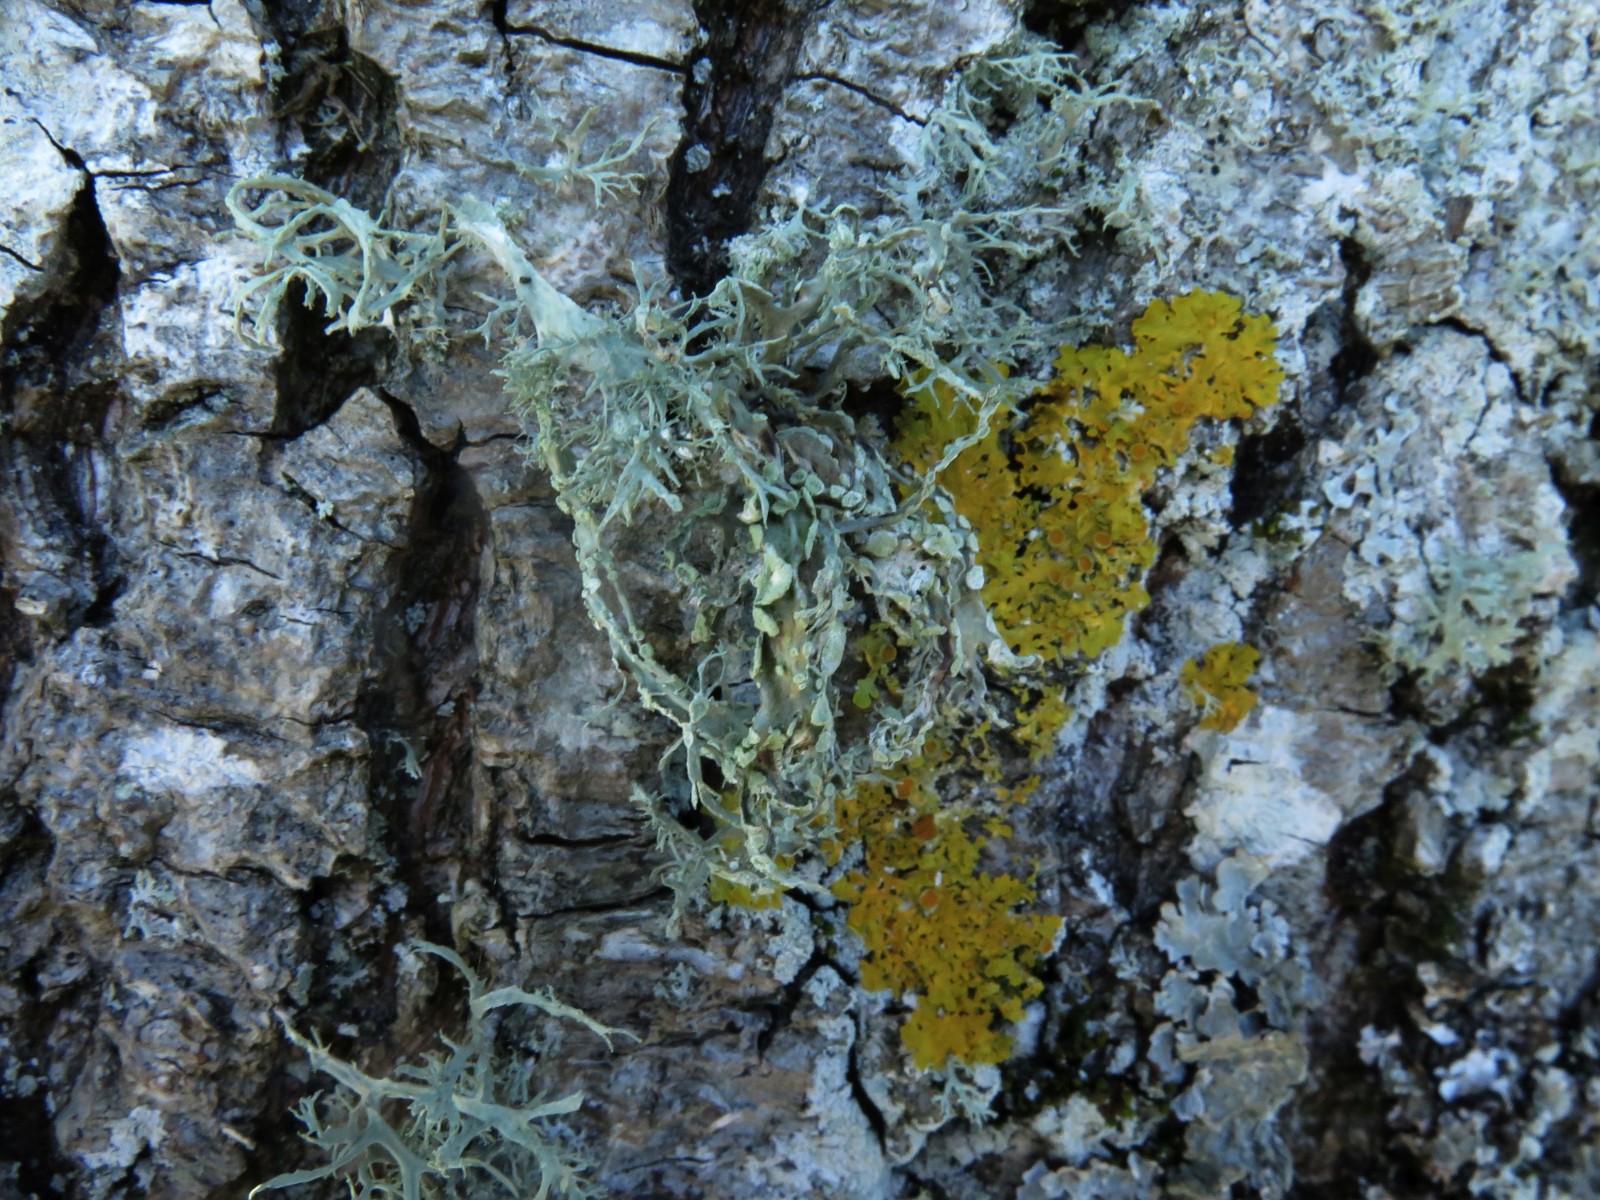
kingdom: Fungi
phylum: Ascomycota
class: Lecanoromycetes
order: Lecanorales
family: Ramalinaceae
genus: Ramalina
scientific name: Ramalina farinacea
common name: melet grenlav
